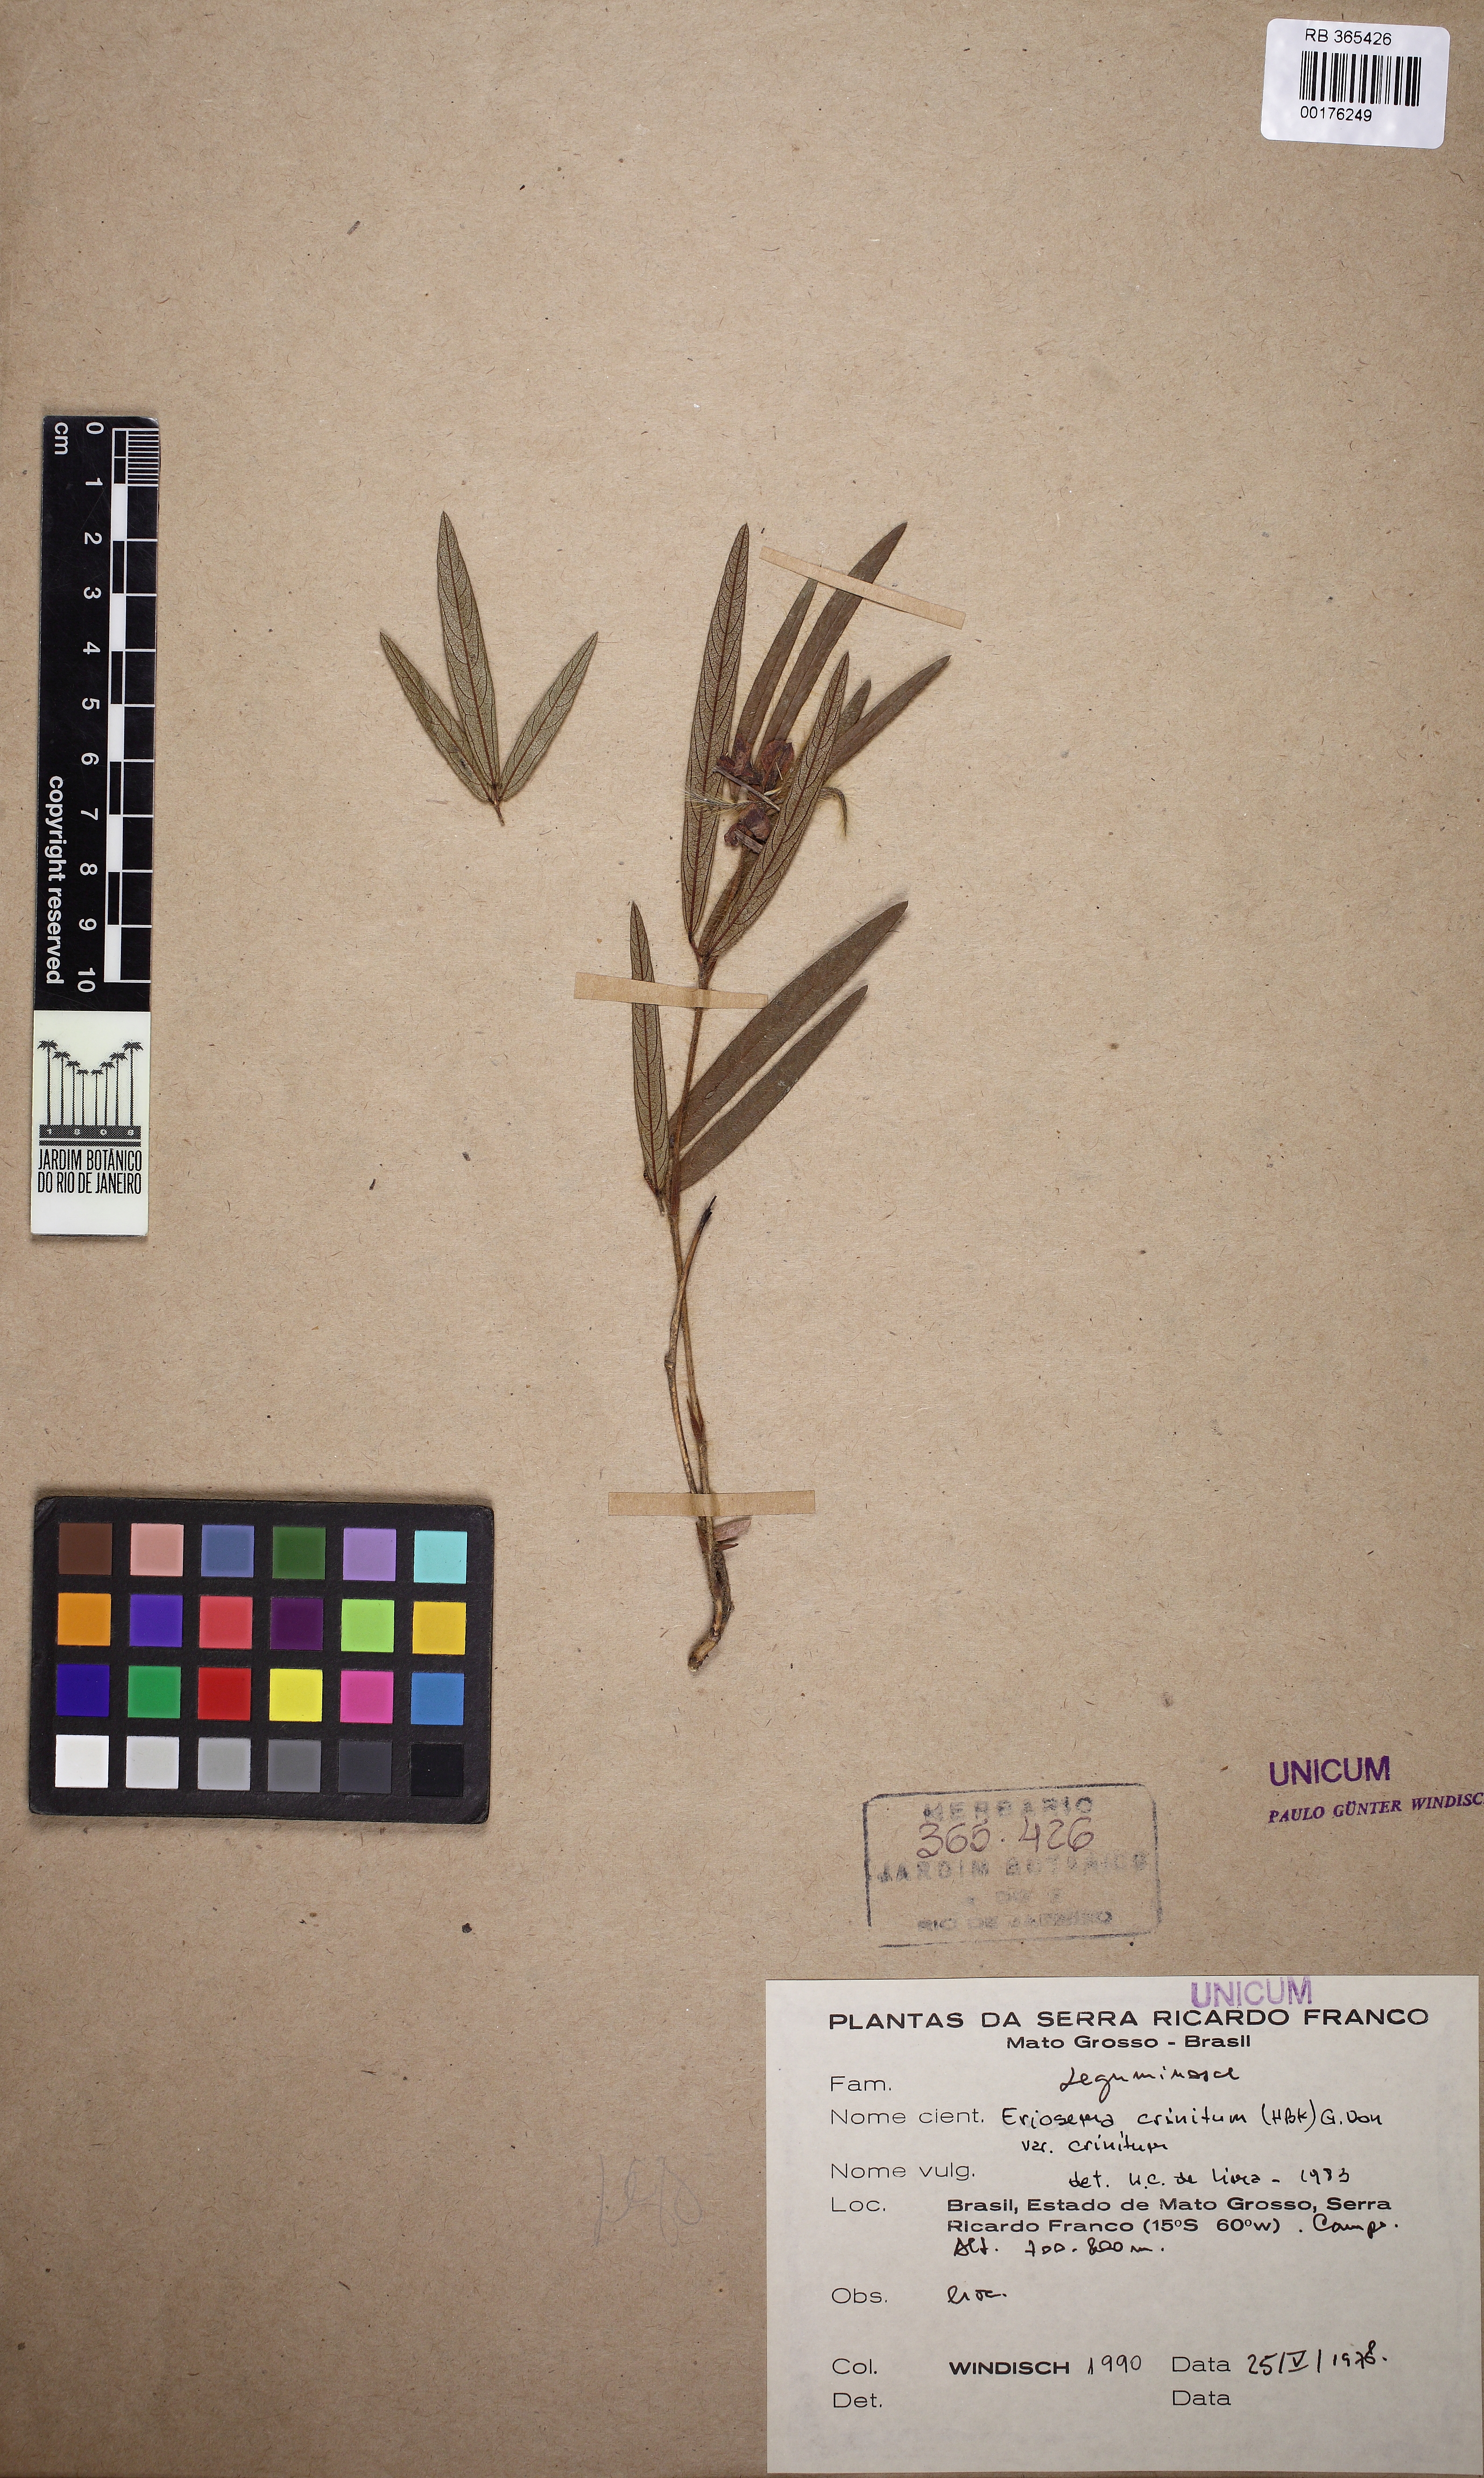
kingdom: Plantae
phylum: Tracheophyta
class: Magnoliopsida
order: Fabales
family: Fabaceae
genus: Eriosema
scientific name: Eriosema crinitum
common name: Sand pea
